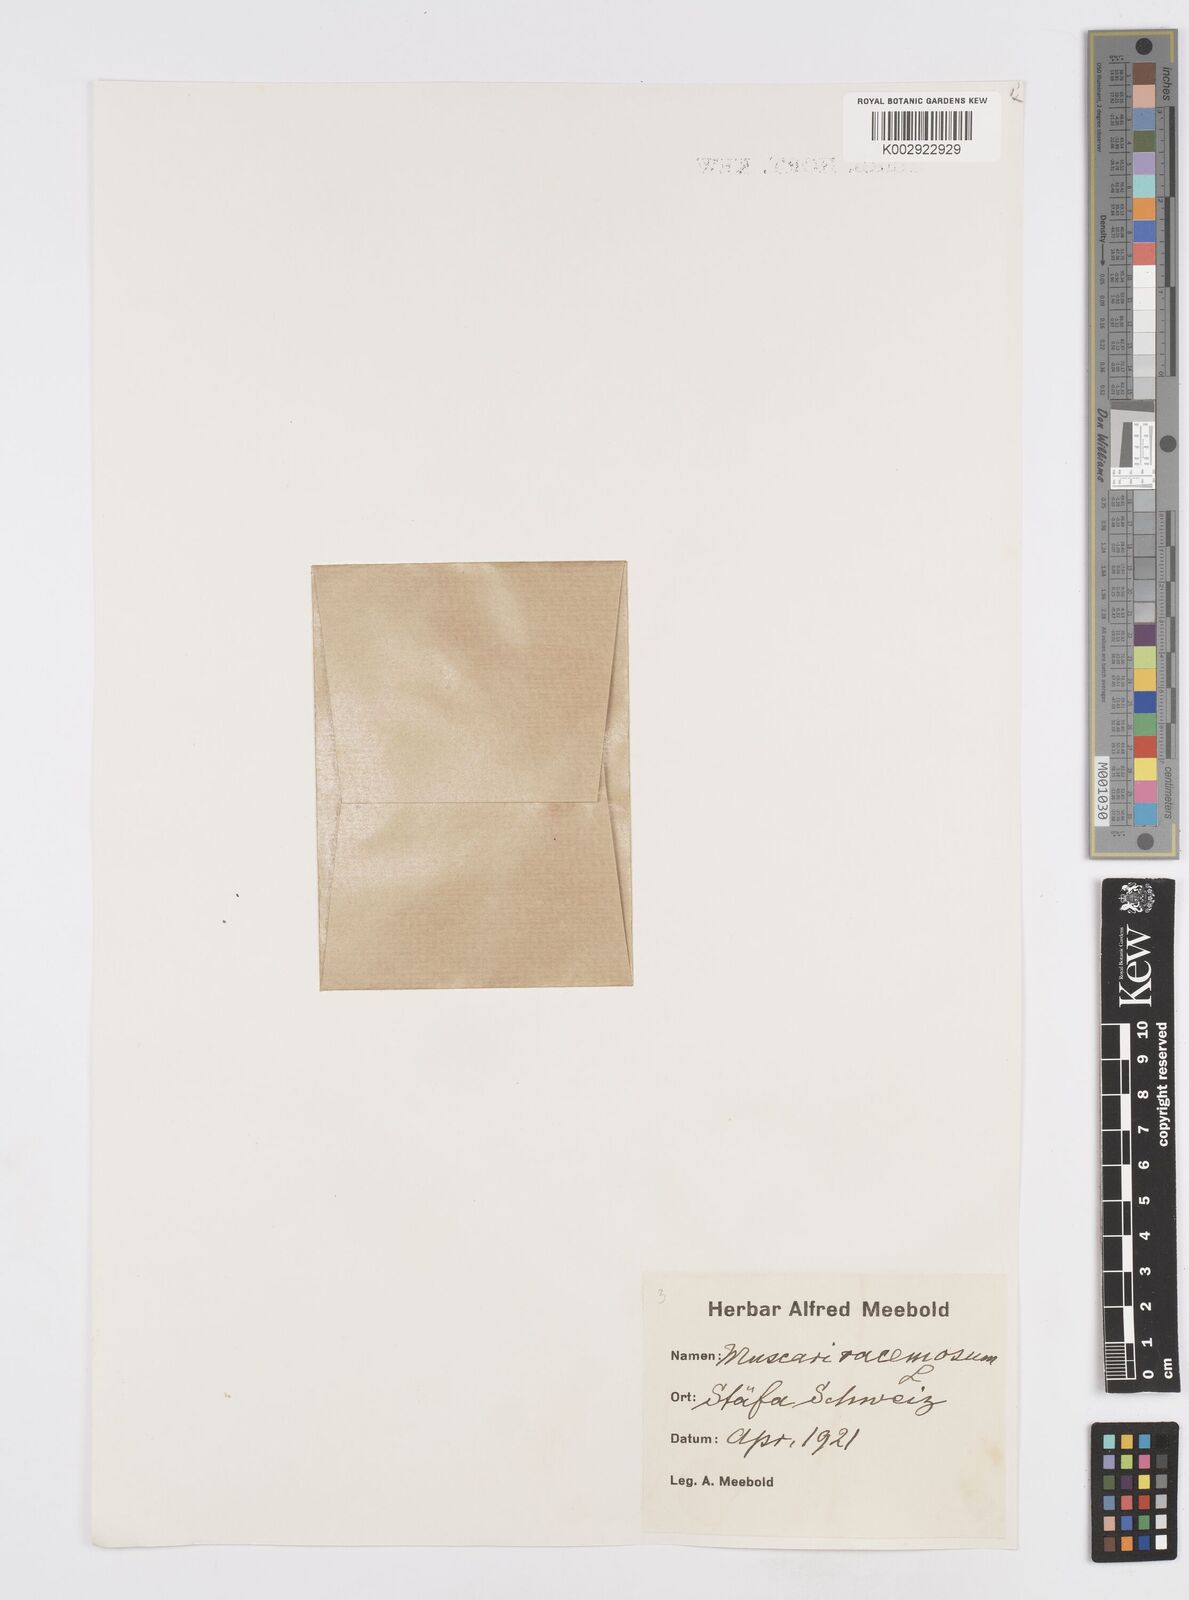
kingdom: Plantae
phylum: Tracheophyta
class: Liliopsida
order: Asparagales
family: Asparagaceae
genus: Muscarimia
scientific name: Muscarimia muscari
